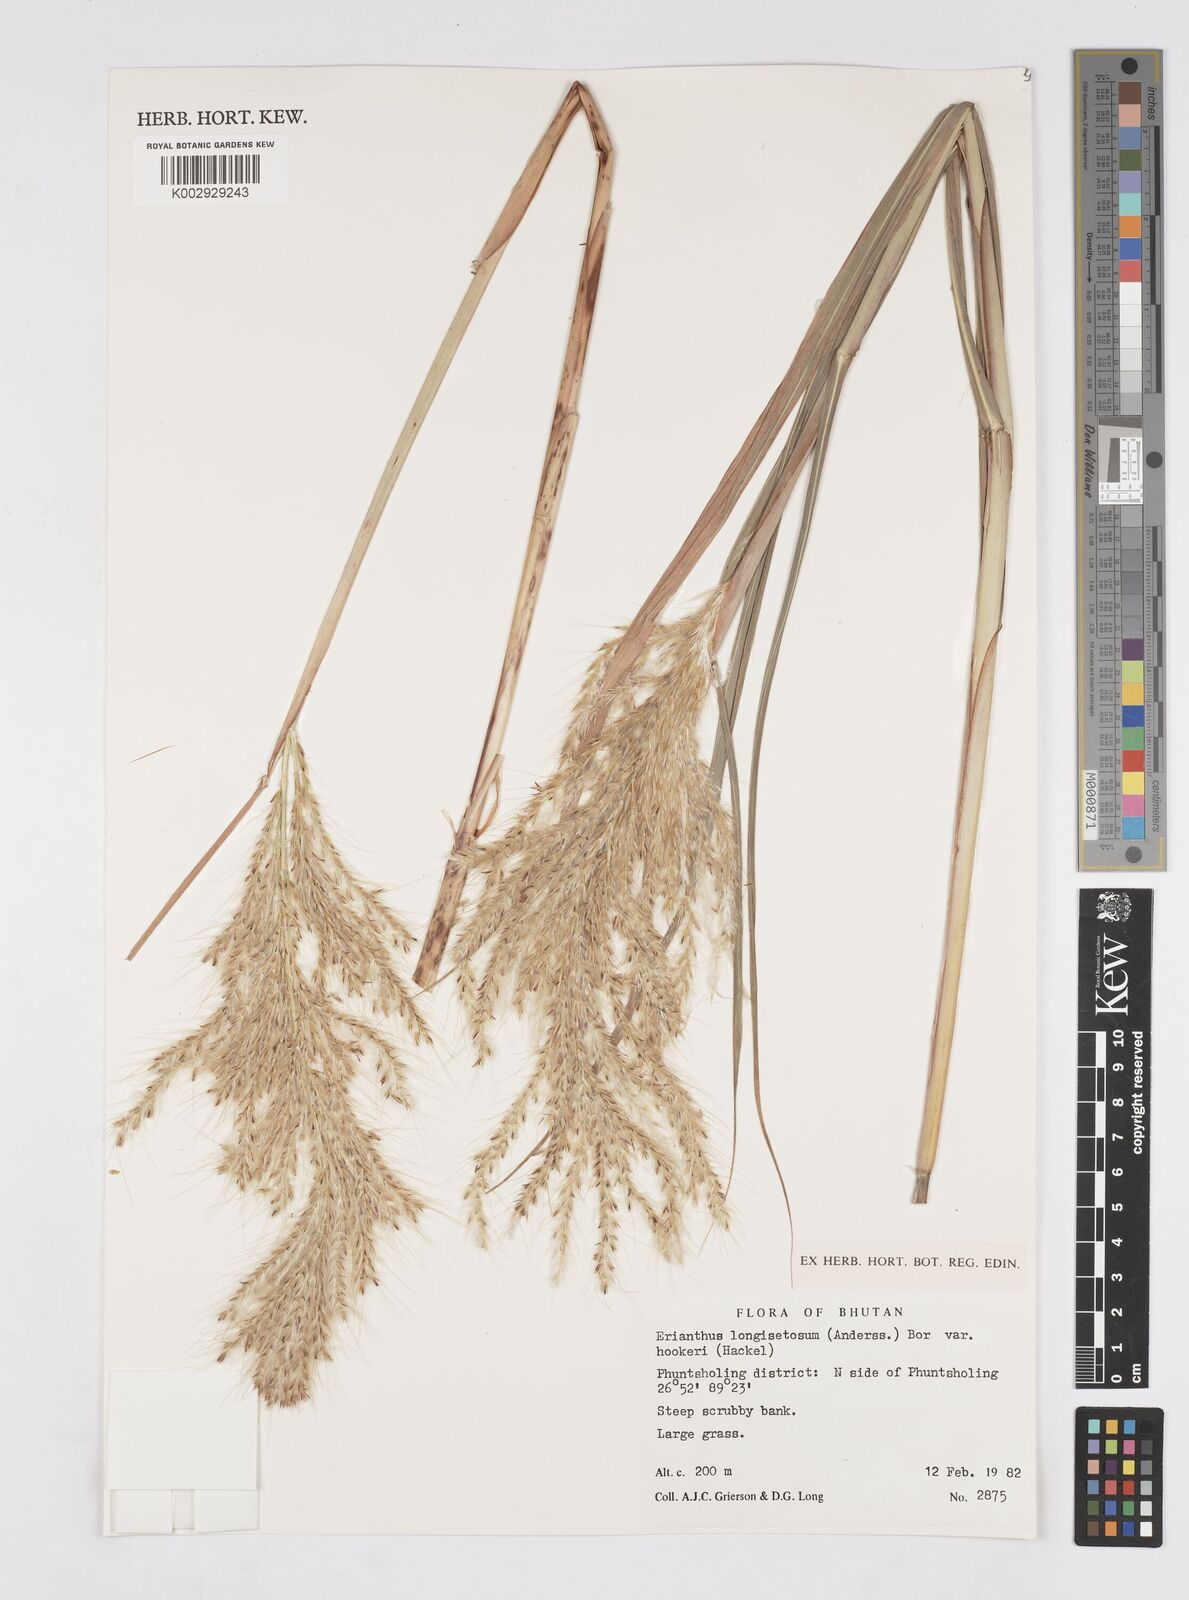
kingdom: Plantae
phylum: Tracheophyta
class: Liliopsida
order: Poales
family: Poaceae
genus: Saccharum
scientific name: Saccharum longesetosum
